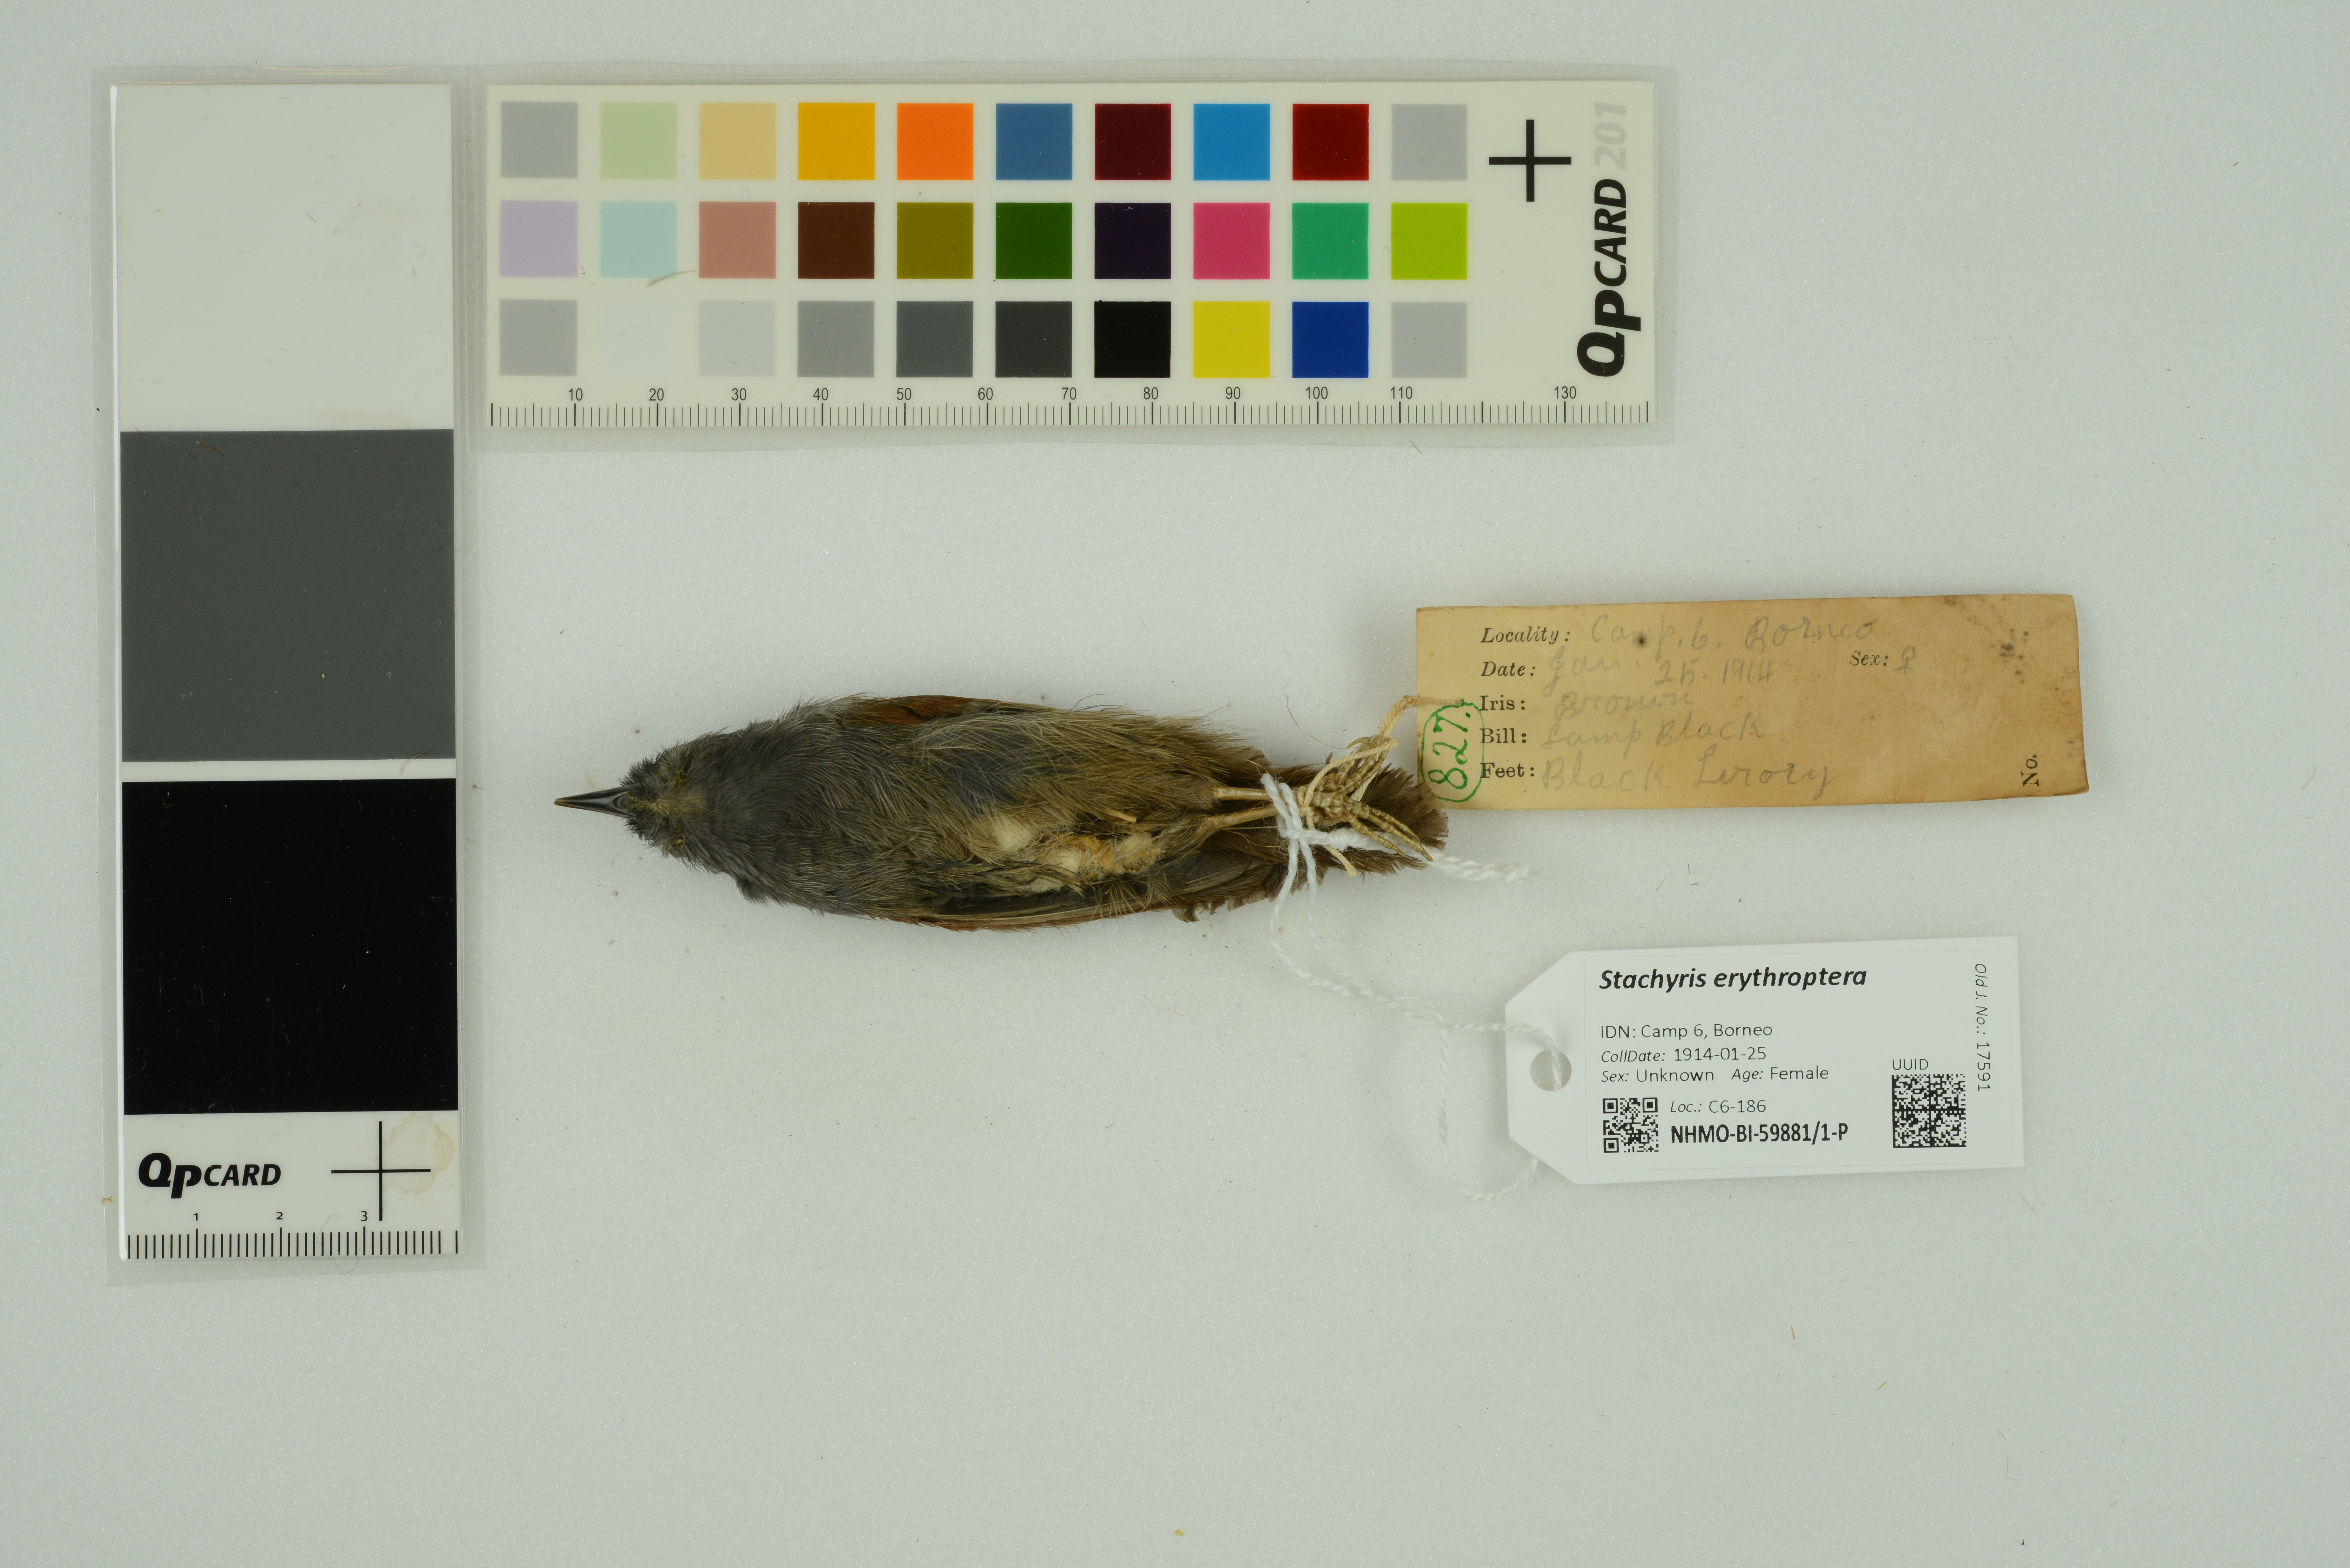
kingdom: Animalia
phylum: Chordata
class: Aves
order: Passeriformes
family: Timaliidae
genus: Stachyris
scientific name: Stachyris erythroptera
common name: Chestnut-winged babbler
